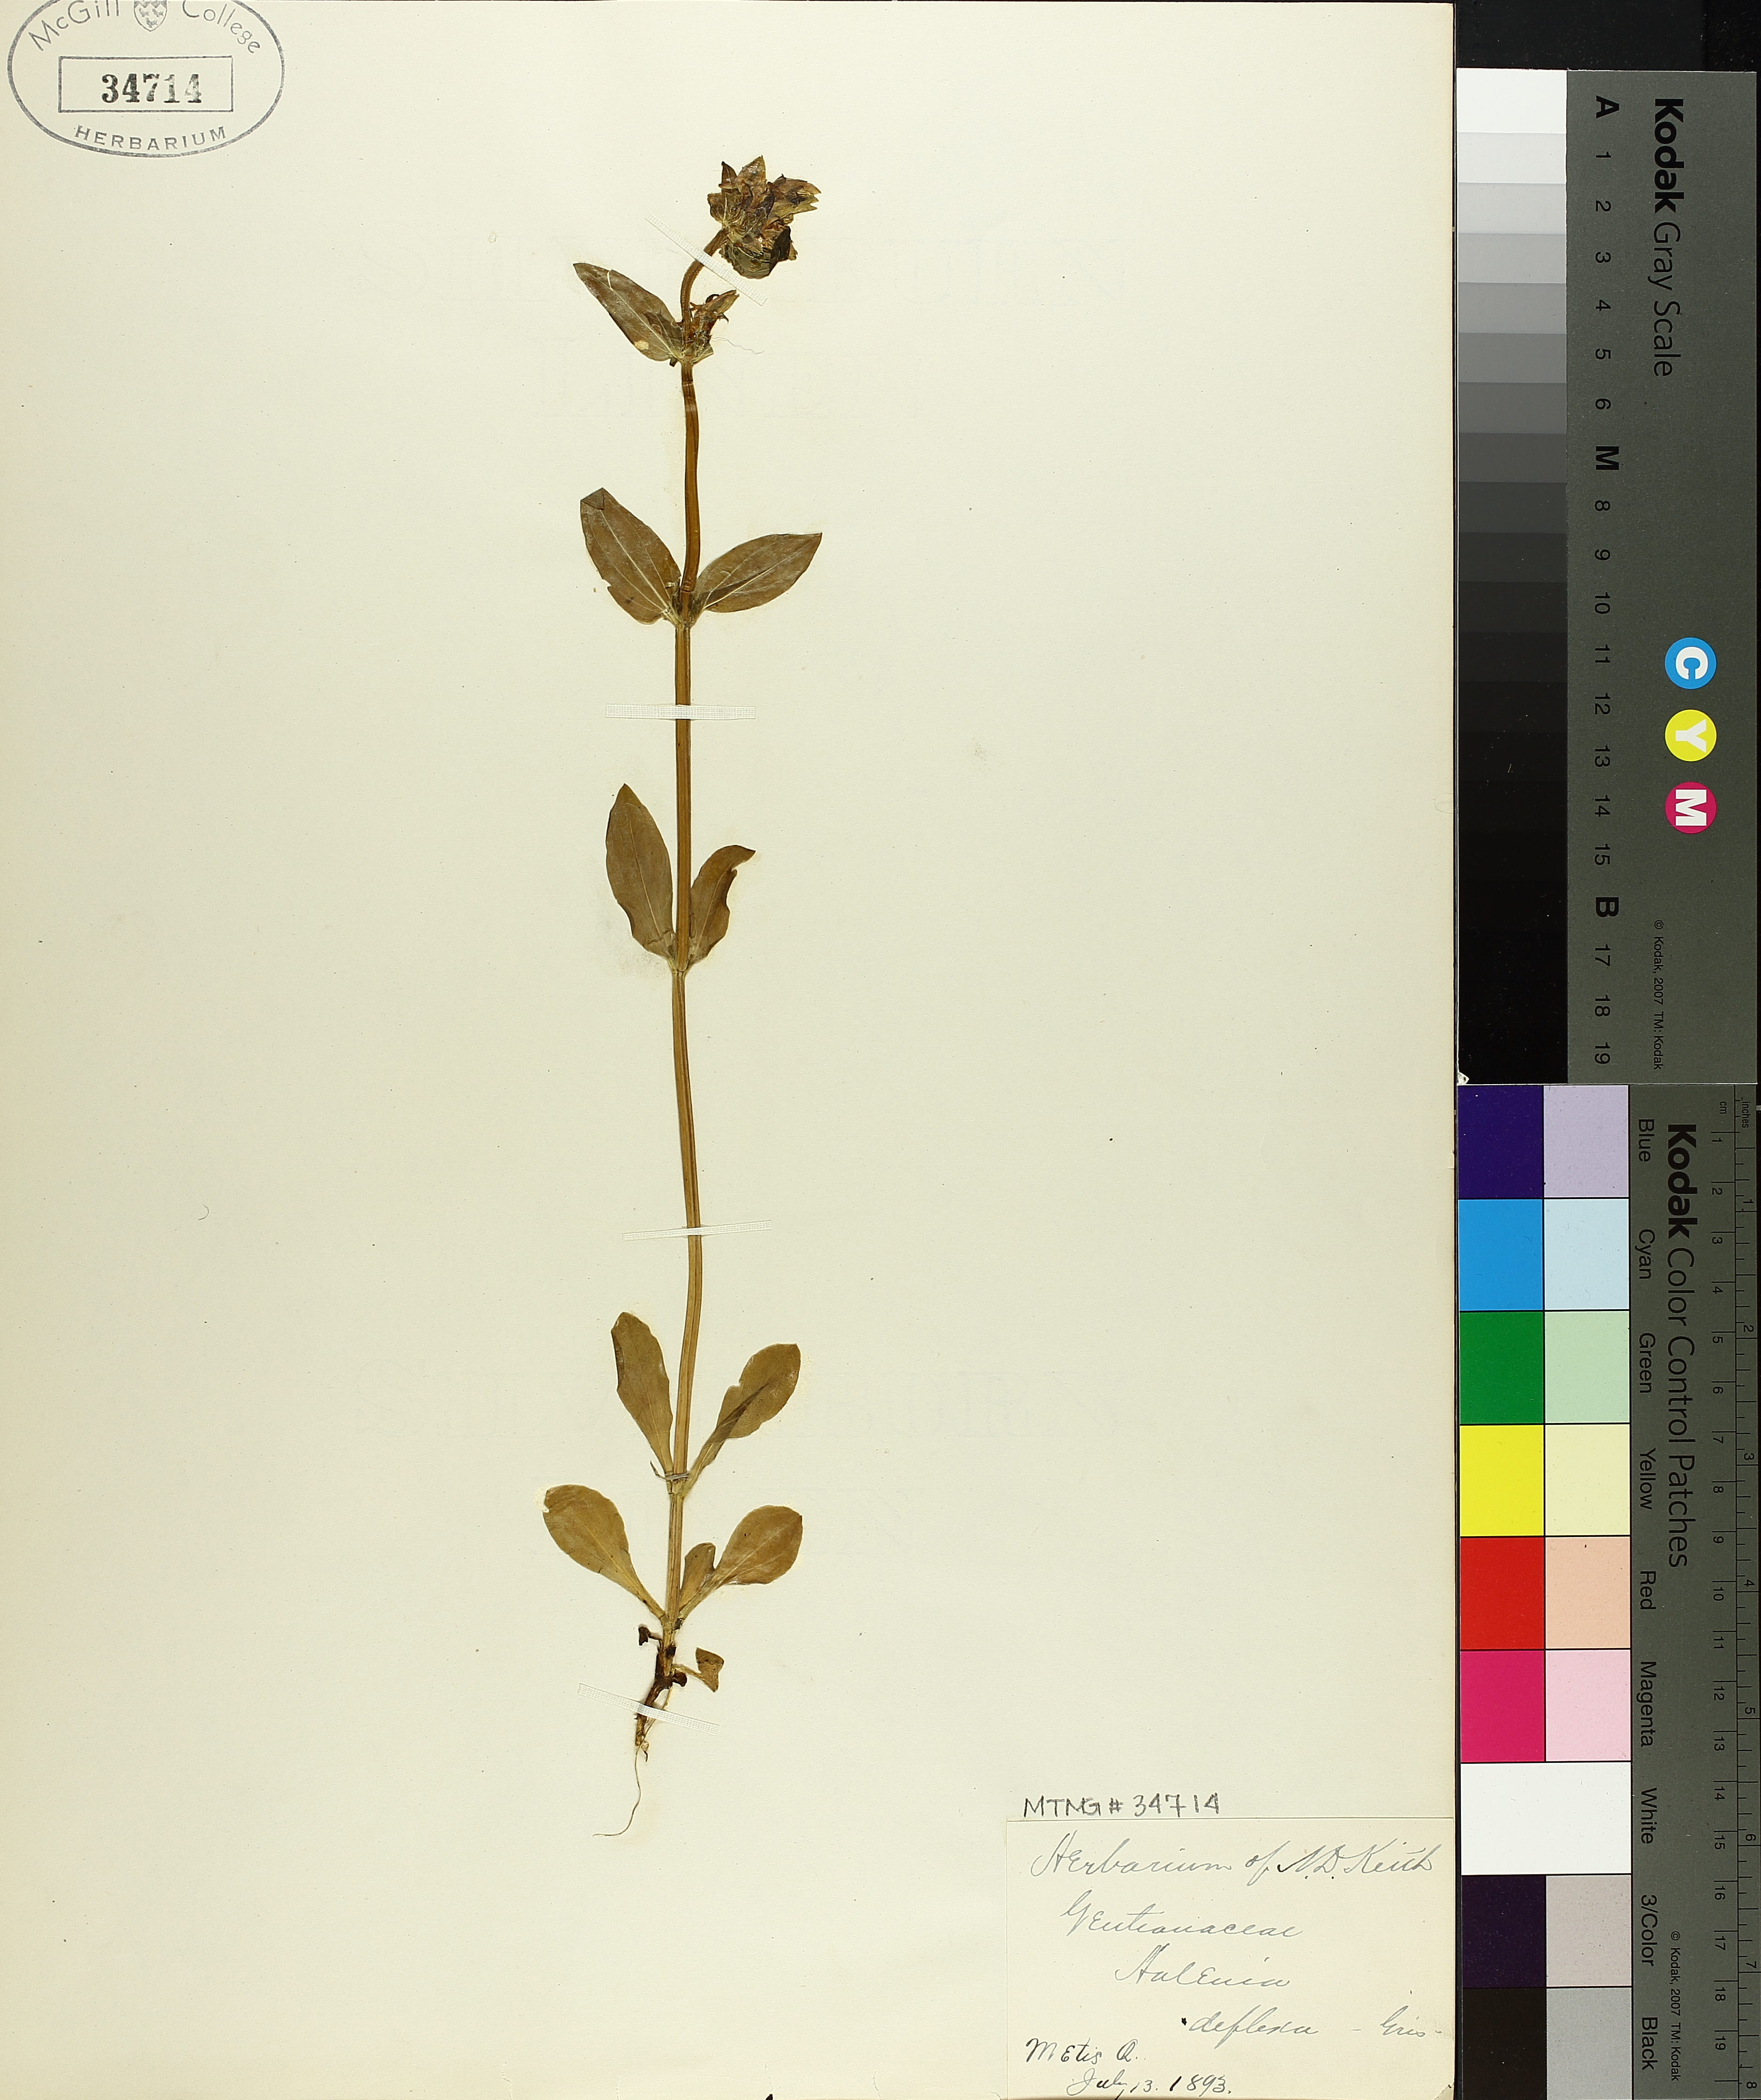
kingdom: Plantae
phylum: Tracheophyta
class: Magnoliopsida
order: Gentianales
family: Gentianaceae
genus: Halenia
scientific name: Halenia deflexa
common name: American spurred gentian
